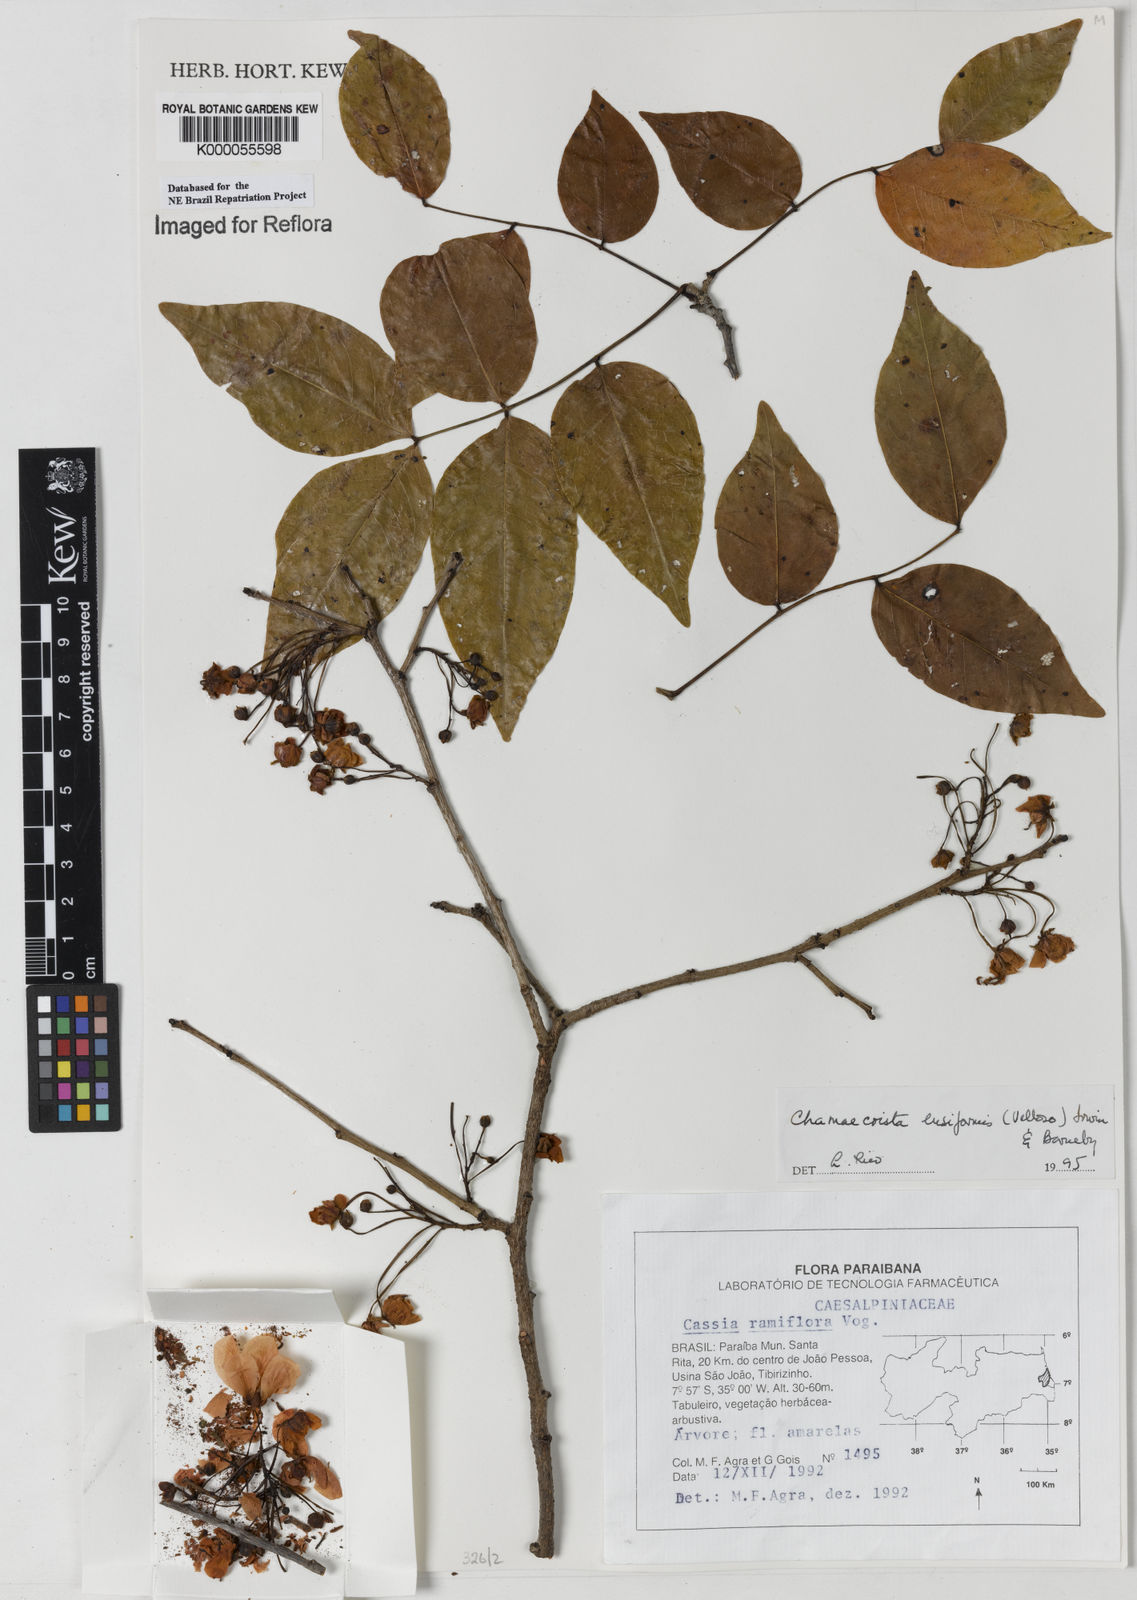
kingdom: Plantae
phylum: Tracheophyta
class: Magnoliopsida
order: Fabales
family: Fabaceae
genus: Chamaecrista
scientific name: Chamaecrista ensiformis
